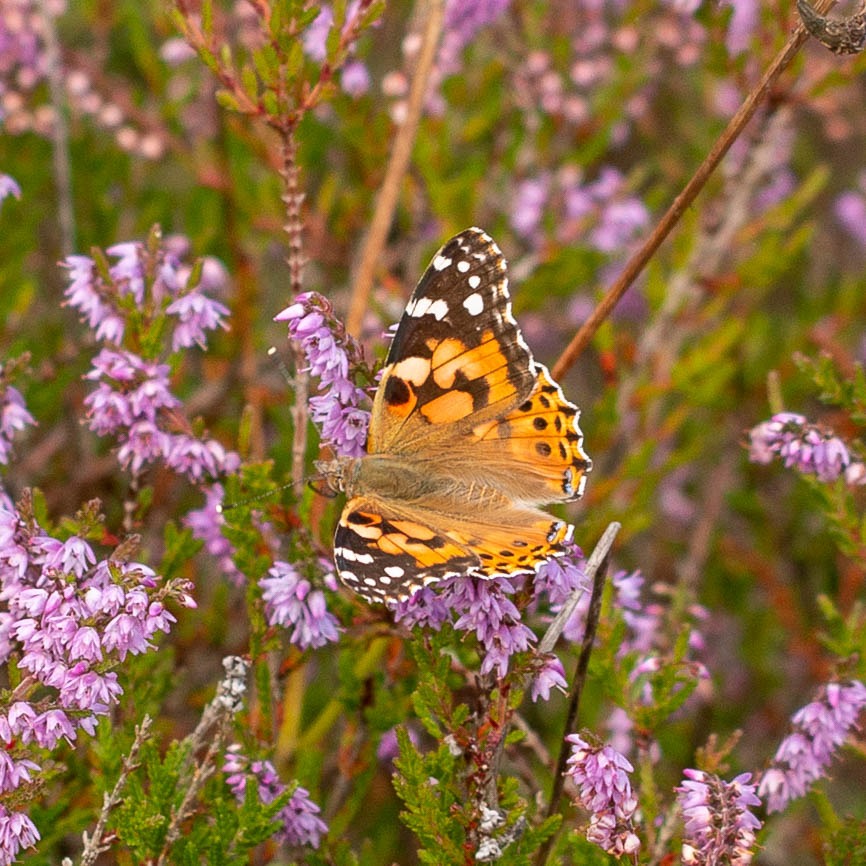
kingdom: Animalia
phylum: Arthropoda
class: Insecta
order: Lepidoptera
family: Nymphalidae
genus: Vanessa
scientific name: Vanessa cardui
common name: Tidselsommerfugl
